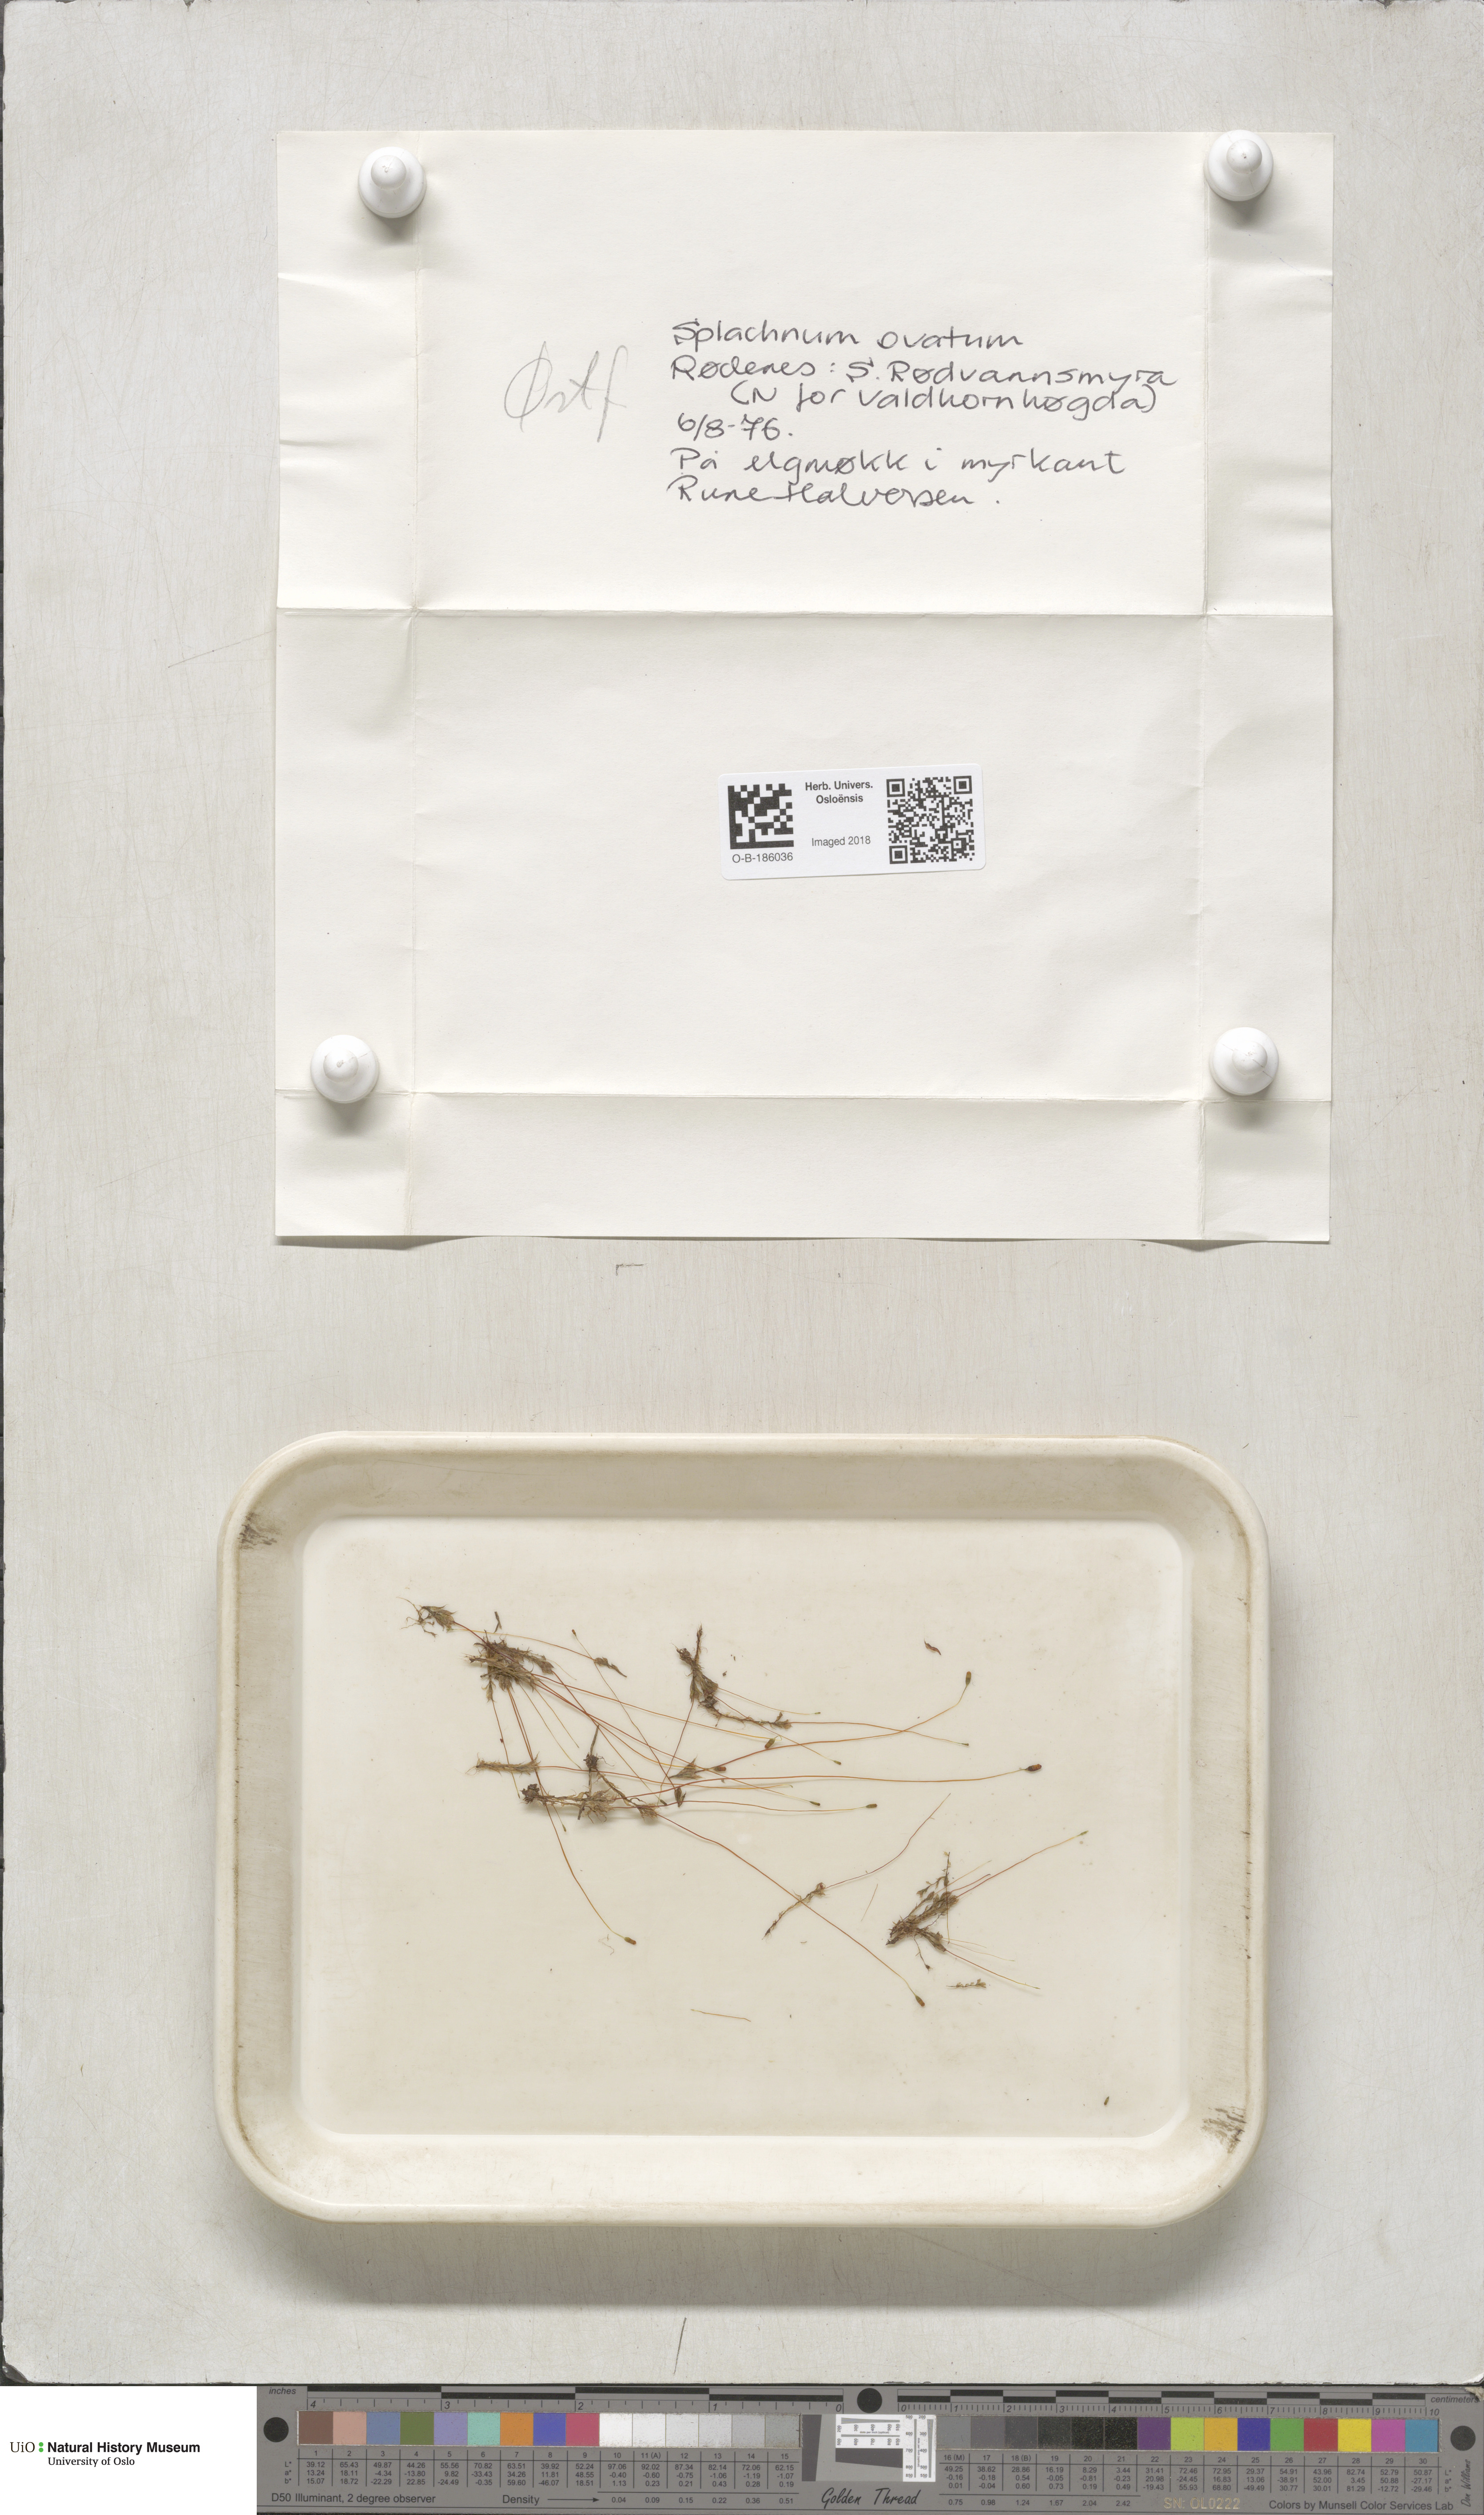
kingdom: Plantae
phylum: Bryophyta
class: Bryopsida
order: Splachnales
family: Splachnaceae
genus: Splachnum
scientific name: Splachnum sphaericum
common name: Round-fruited dung moss
